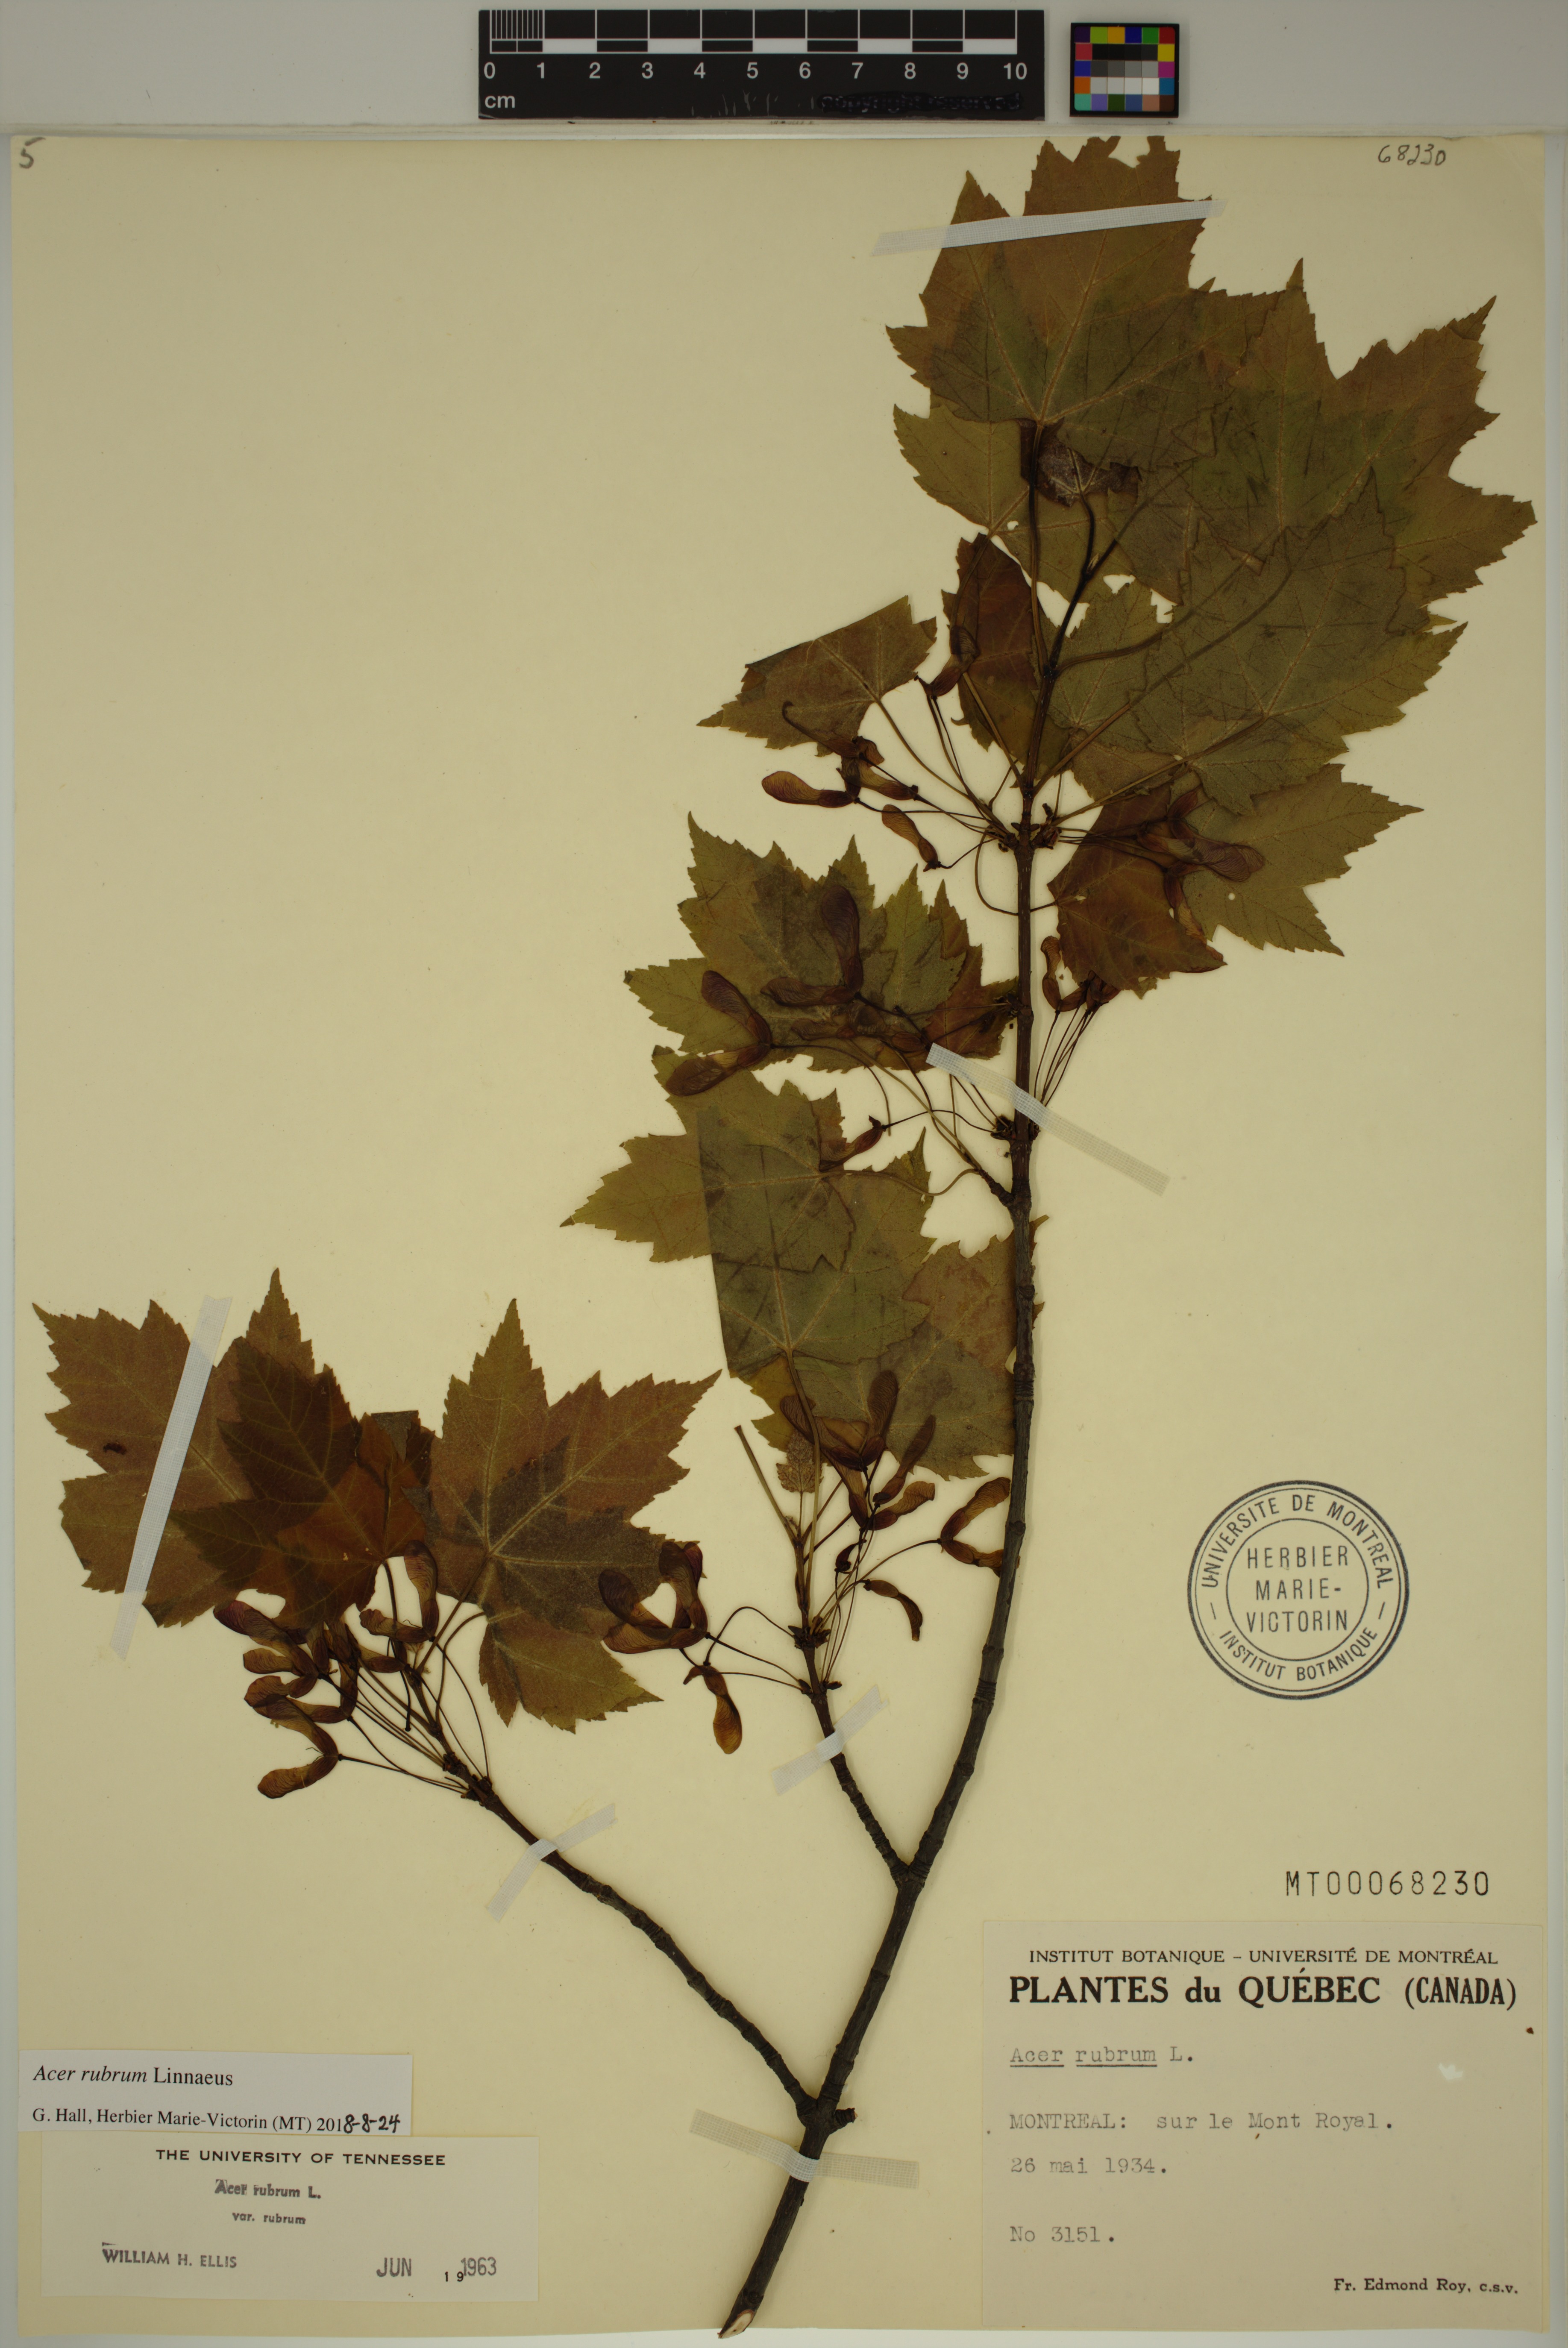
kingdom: Plantae
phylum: Tracheophyta
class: Magnoliopsida
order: Sapindales
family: Sapindaceae
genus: Acer
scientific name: Acer rubrum
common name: Red maple
